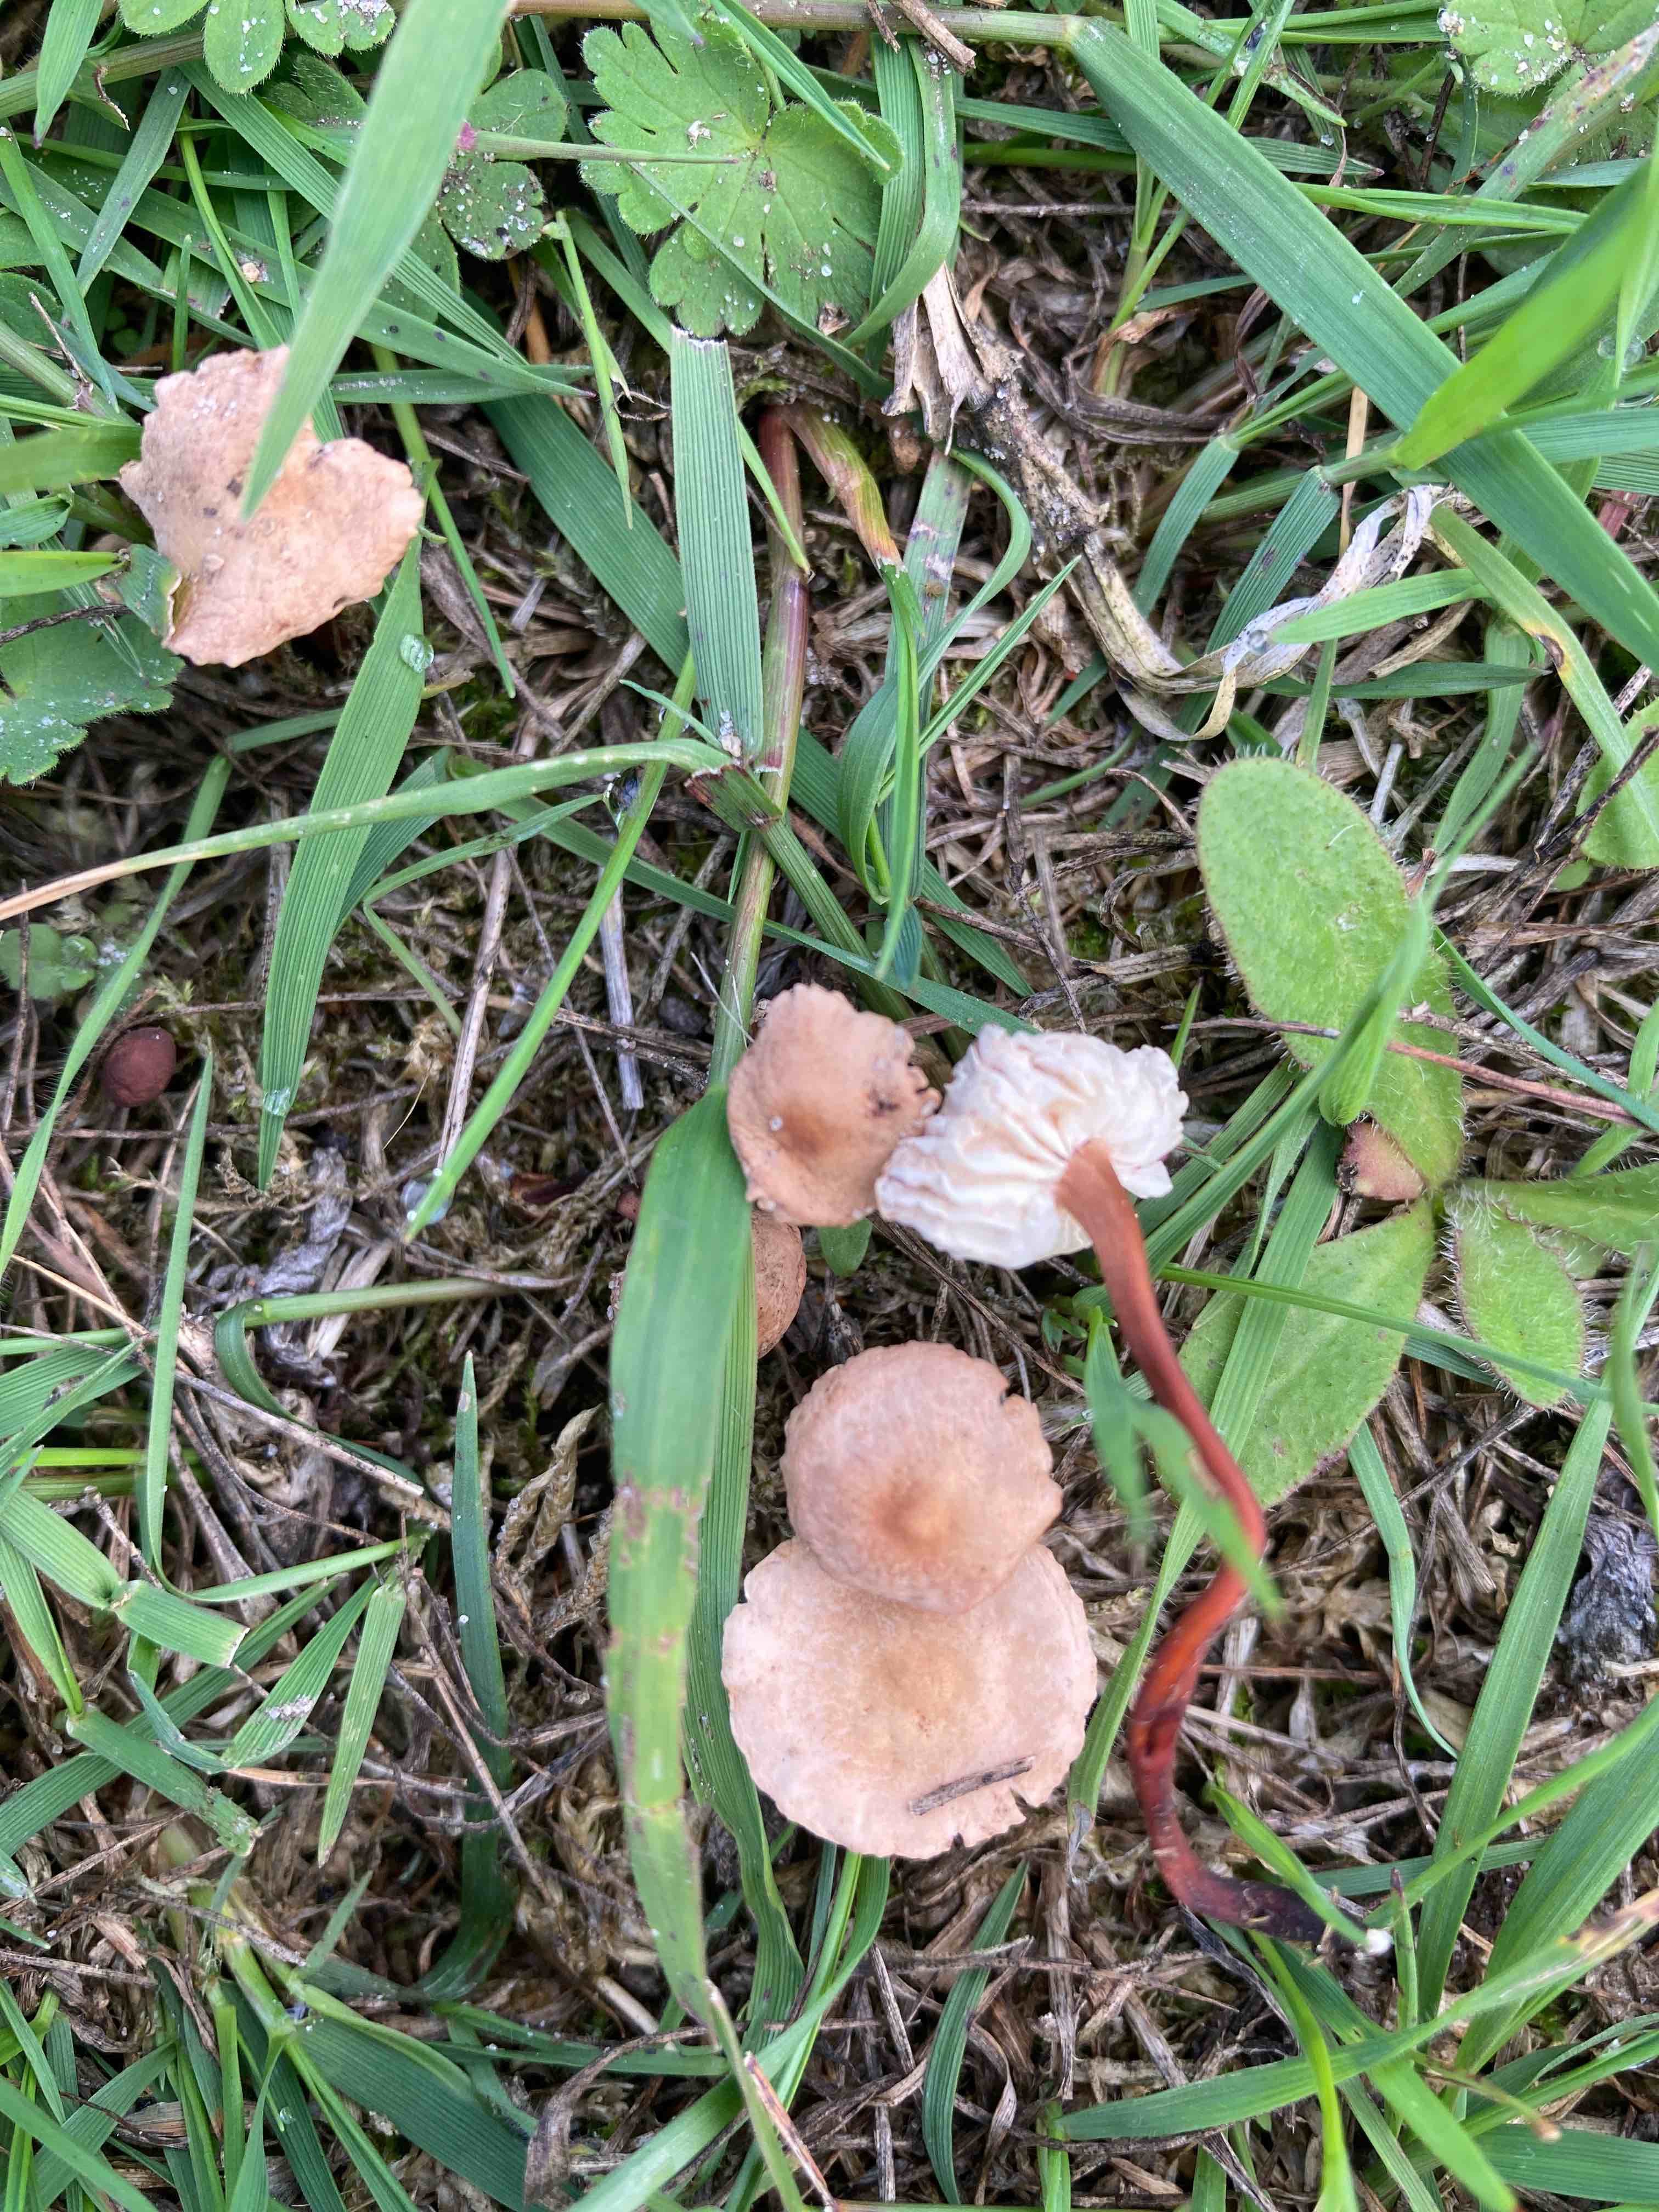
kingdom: Fungi
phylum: Basidiomycota
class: Agaricomycetes
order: Agaricales
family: Omphalotaceae
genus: Mycetinis
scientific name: Mycetinis scorodonius
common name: lille løghat
